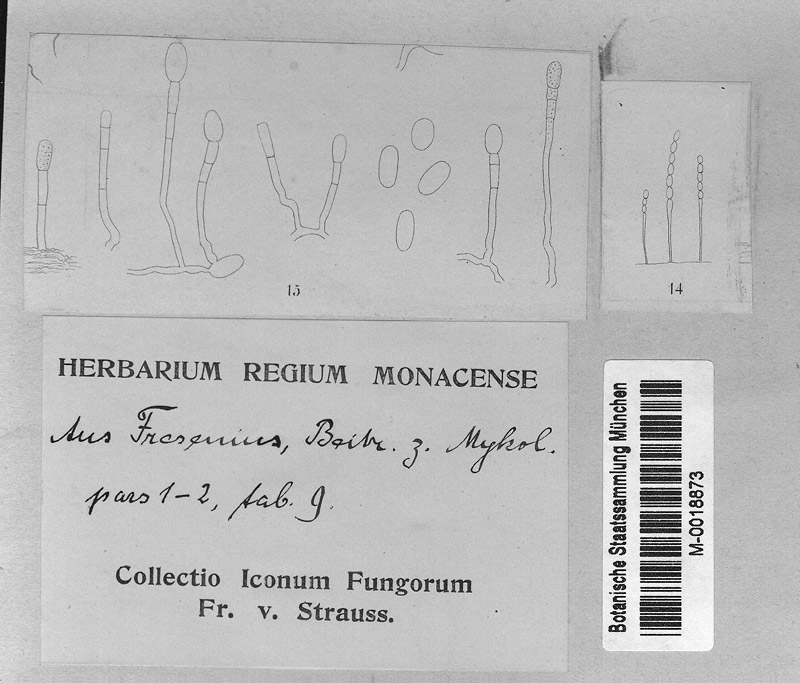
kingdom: Fungi
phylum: Ascomycota
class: Leotiomycetes
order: Helotiales
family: Erysiphaceae
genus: Erysiphe
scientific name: Erysiphe necator
